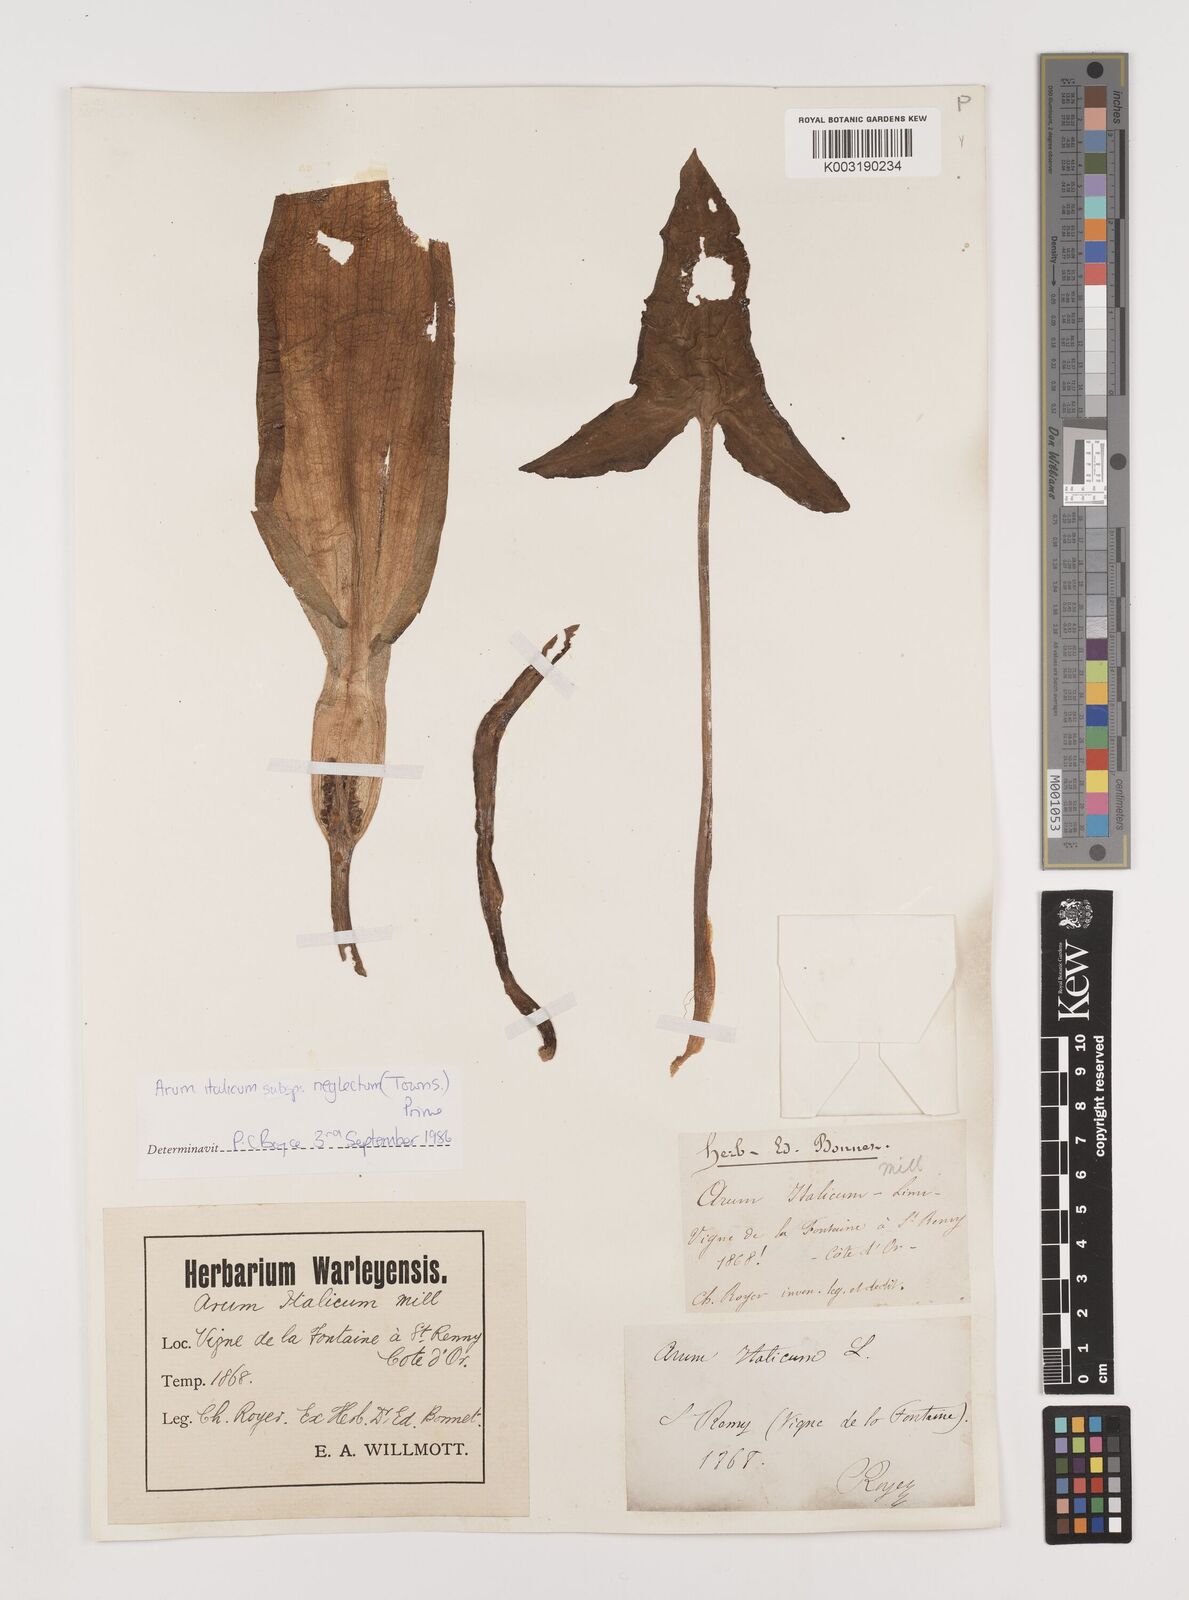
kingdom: Plantae
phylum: Tracheophyta
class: Liliopsida
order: Alismatales
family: Araceae
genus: Arum
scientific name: Arum italicum
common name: Italian lords-and-ladies
